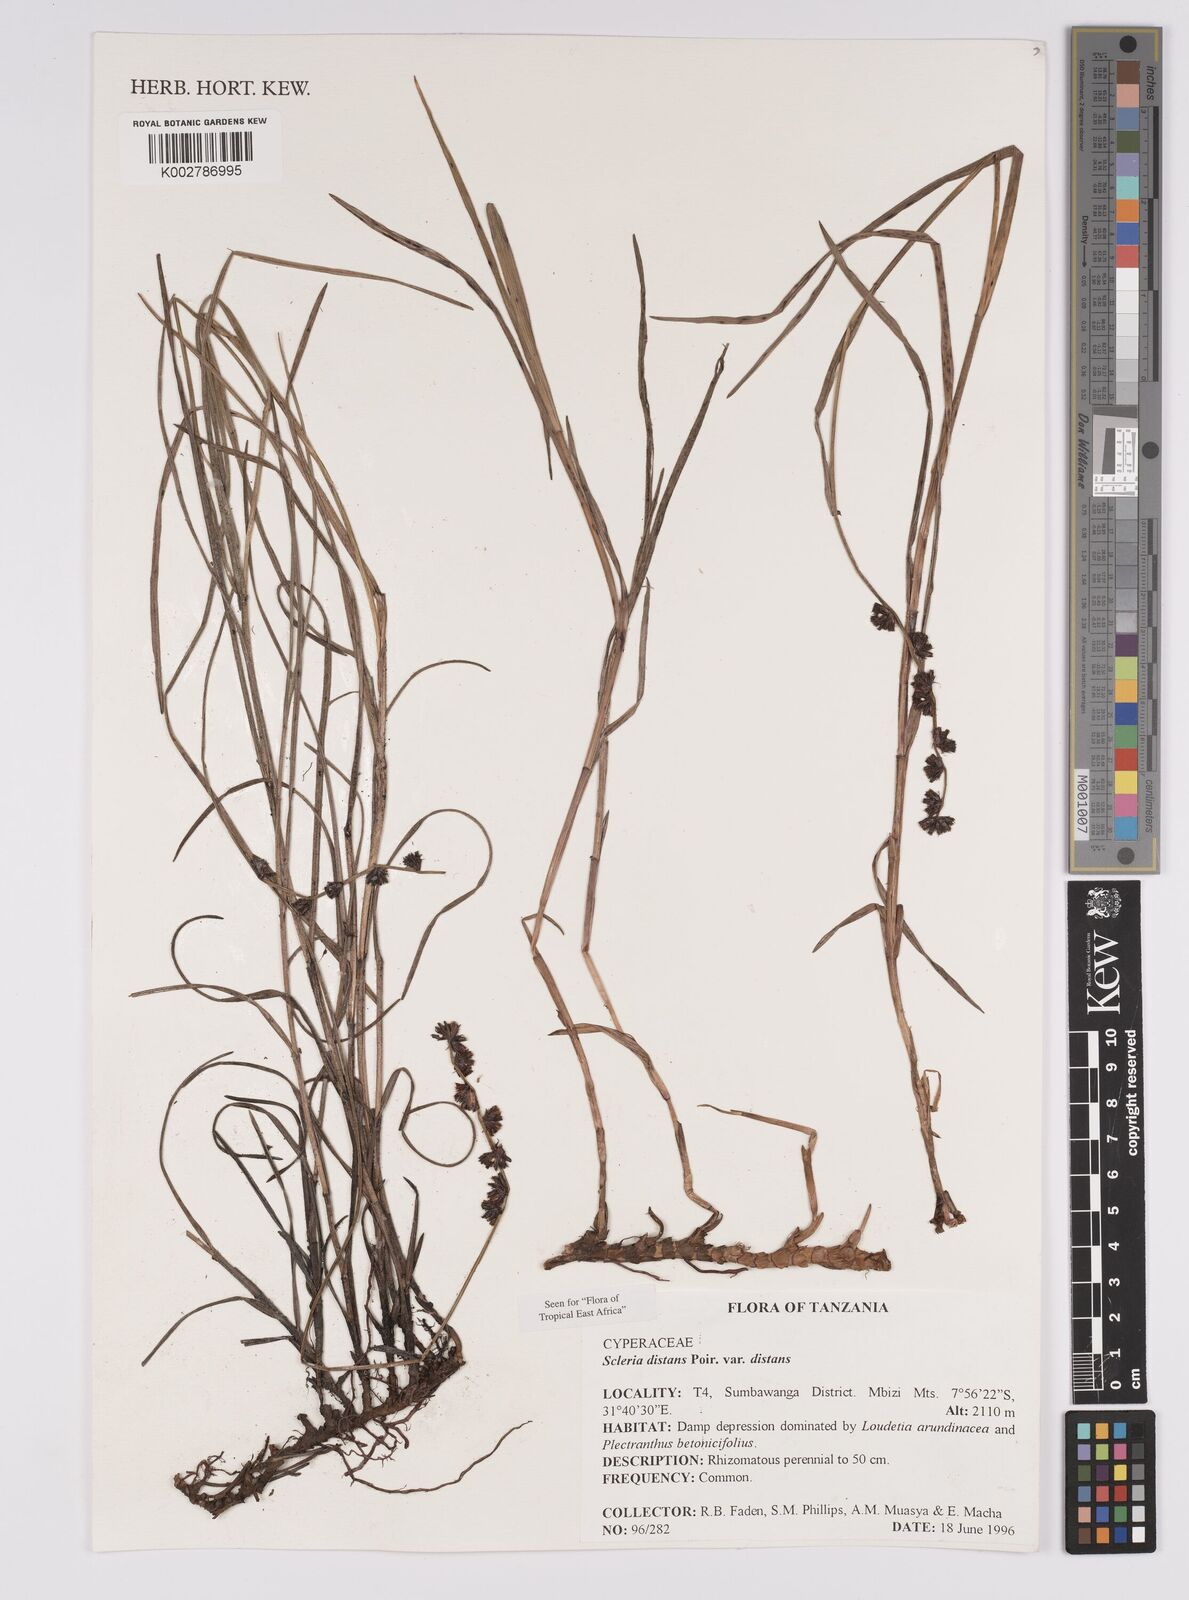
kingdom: Plantae
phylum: Tracheophyta
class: Liliopsida
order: Poales
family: Cyperaceae
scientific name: Cyperaceae
